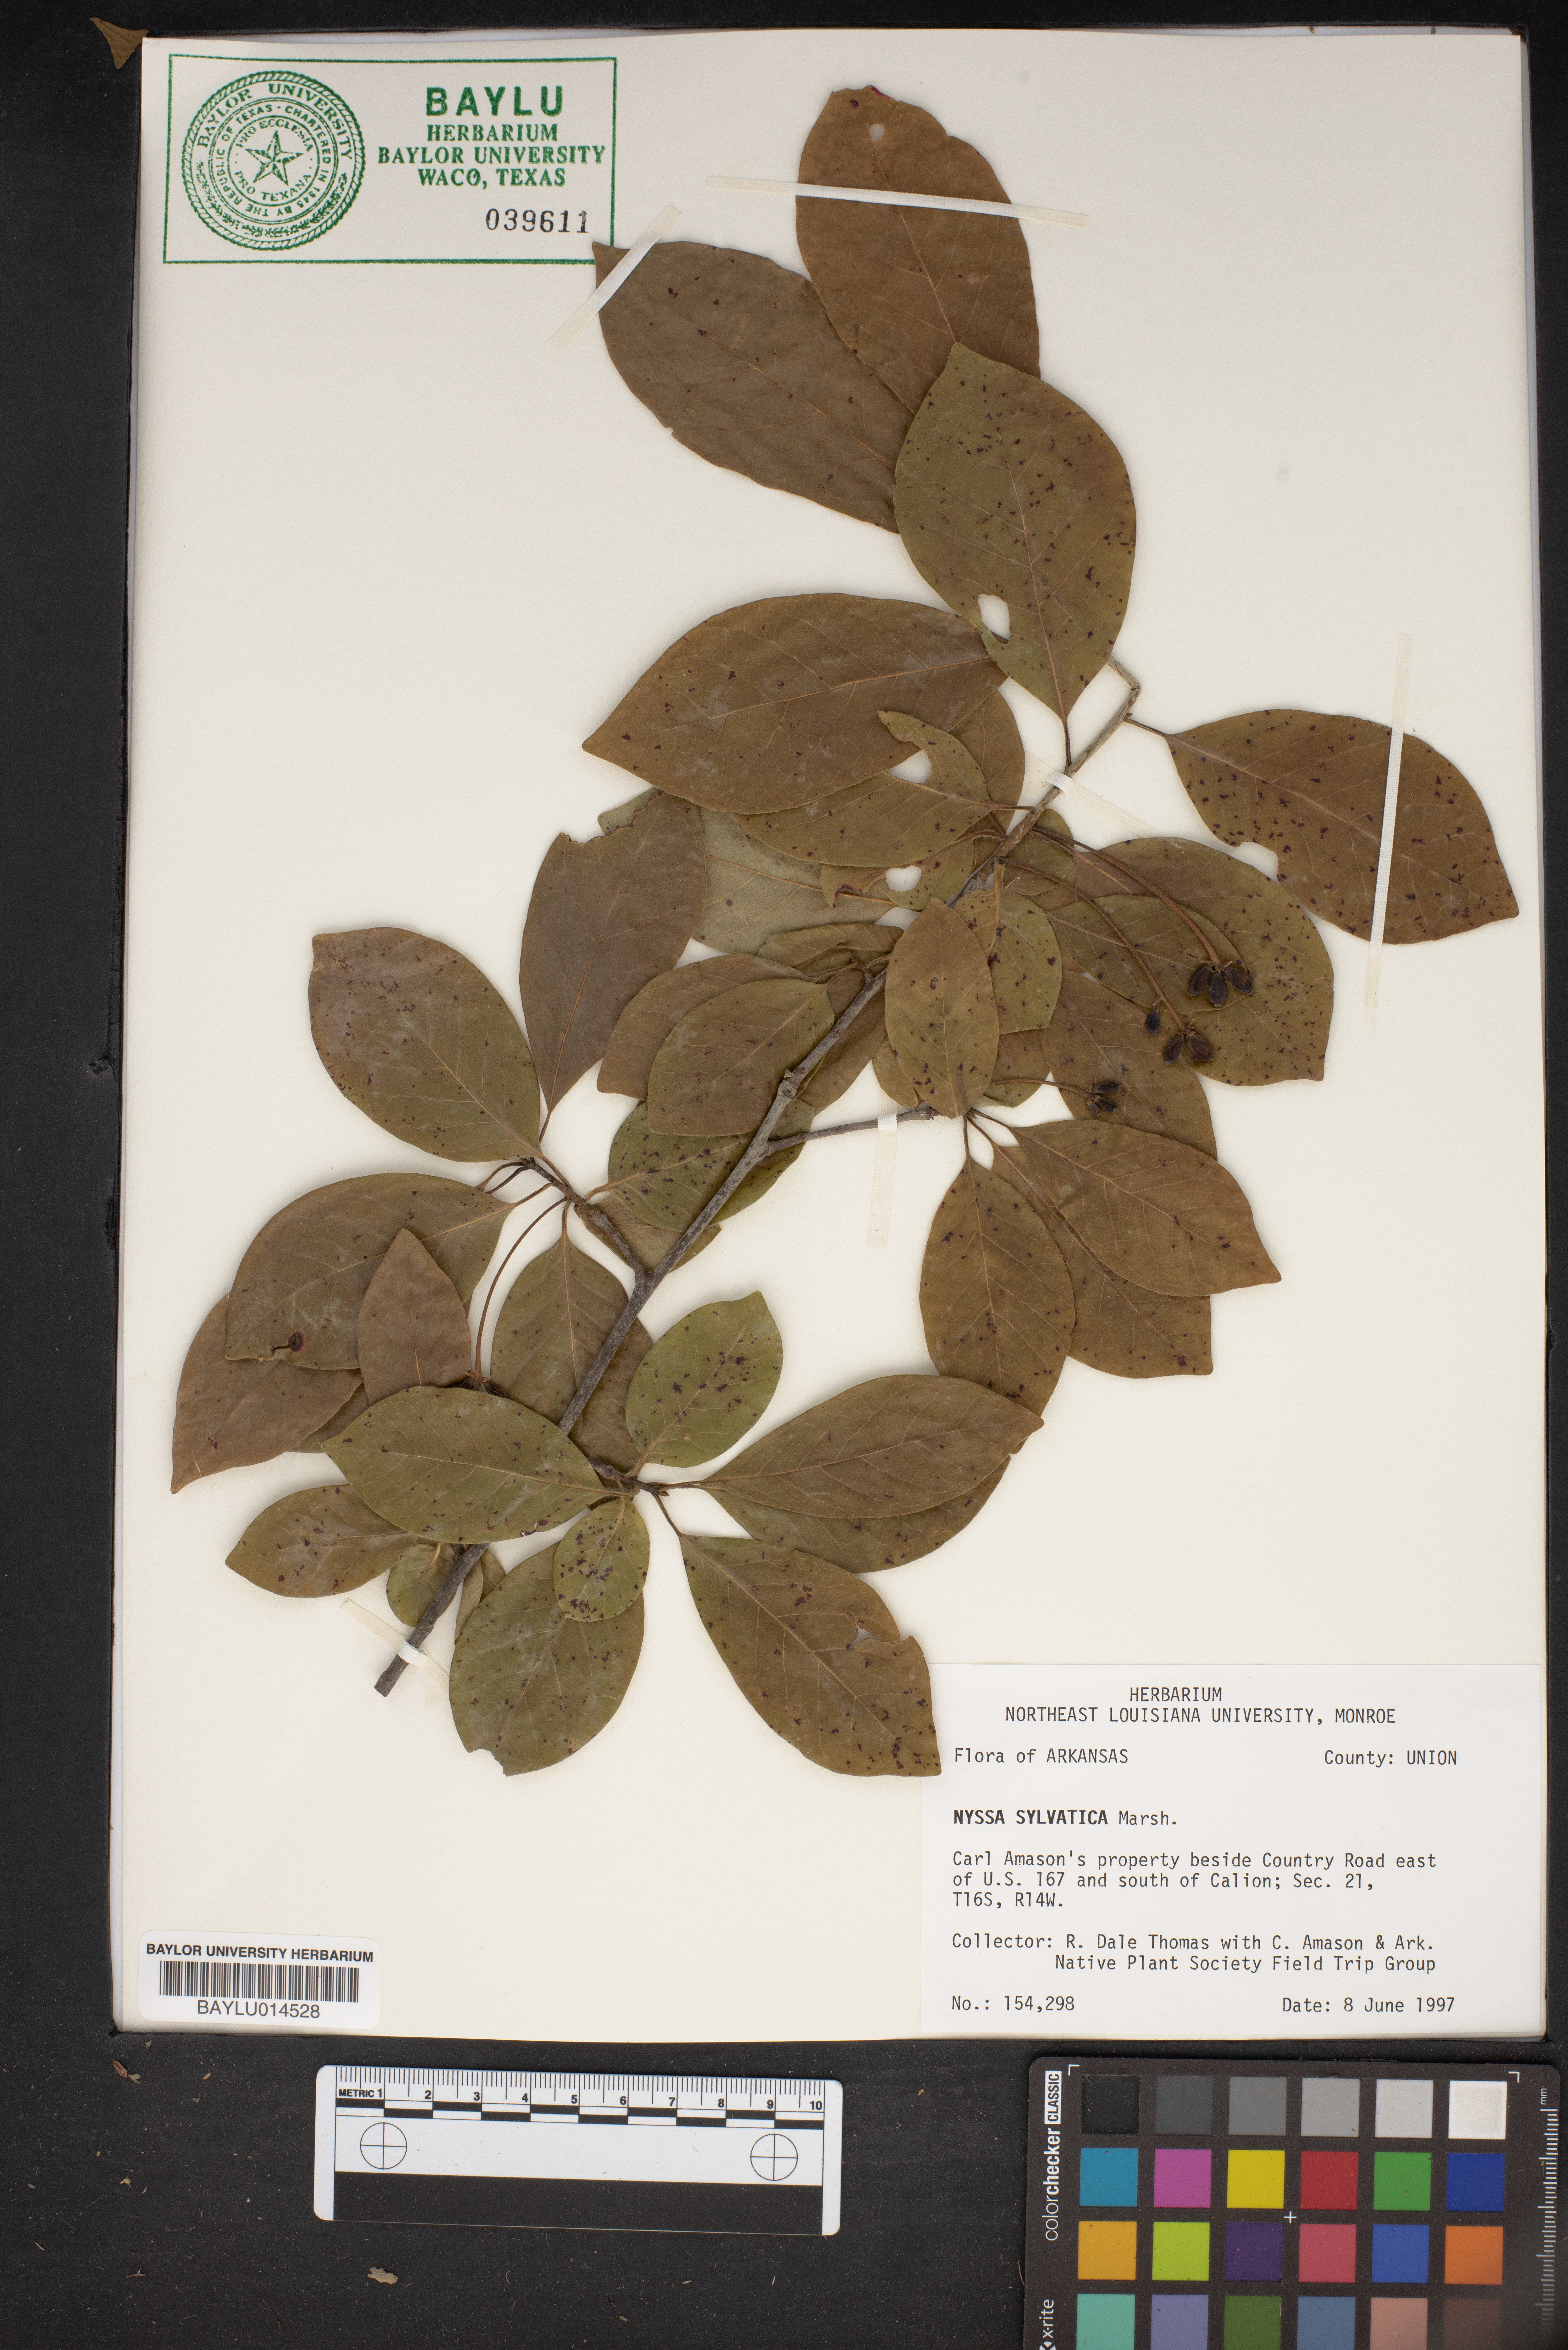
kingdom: Plantae
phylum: Tracheophyta
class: Magnoliopsida
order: Cornales
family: Nyssaceae
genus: Nyssa
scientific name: Nyssa sylvatica
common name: Black tupelo
